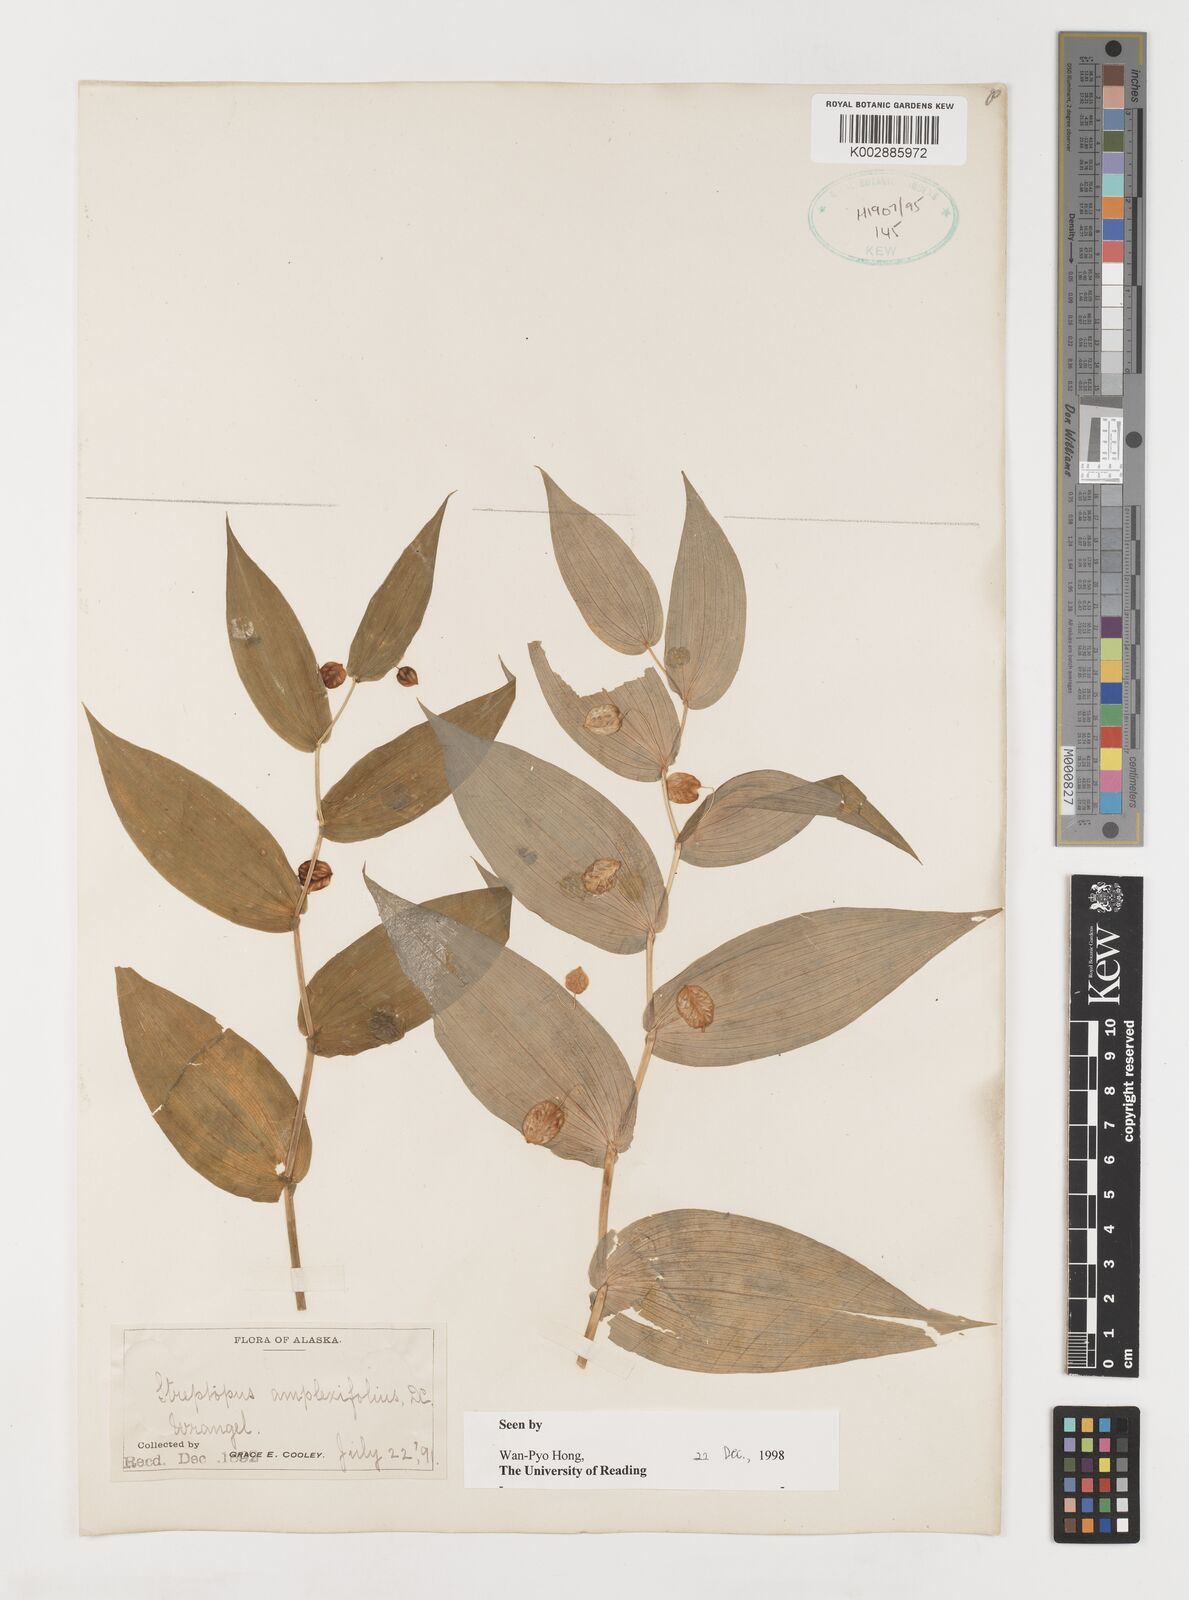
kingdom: Plantae
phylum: Tracheophyta
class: Liliopsida
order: Liliales
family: Liliaceae
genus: Streptopus
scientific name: Streptopus amplexifolius
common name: Clasp twisted stalk
